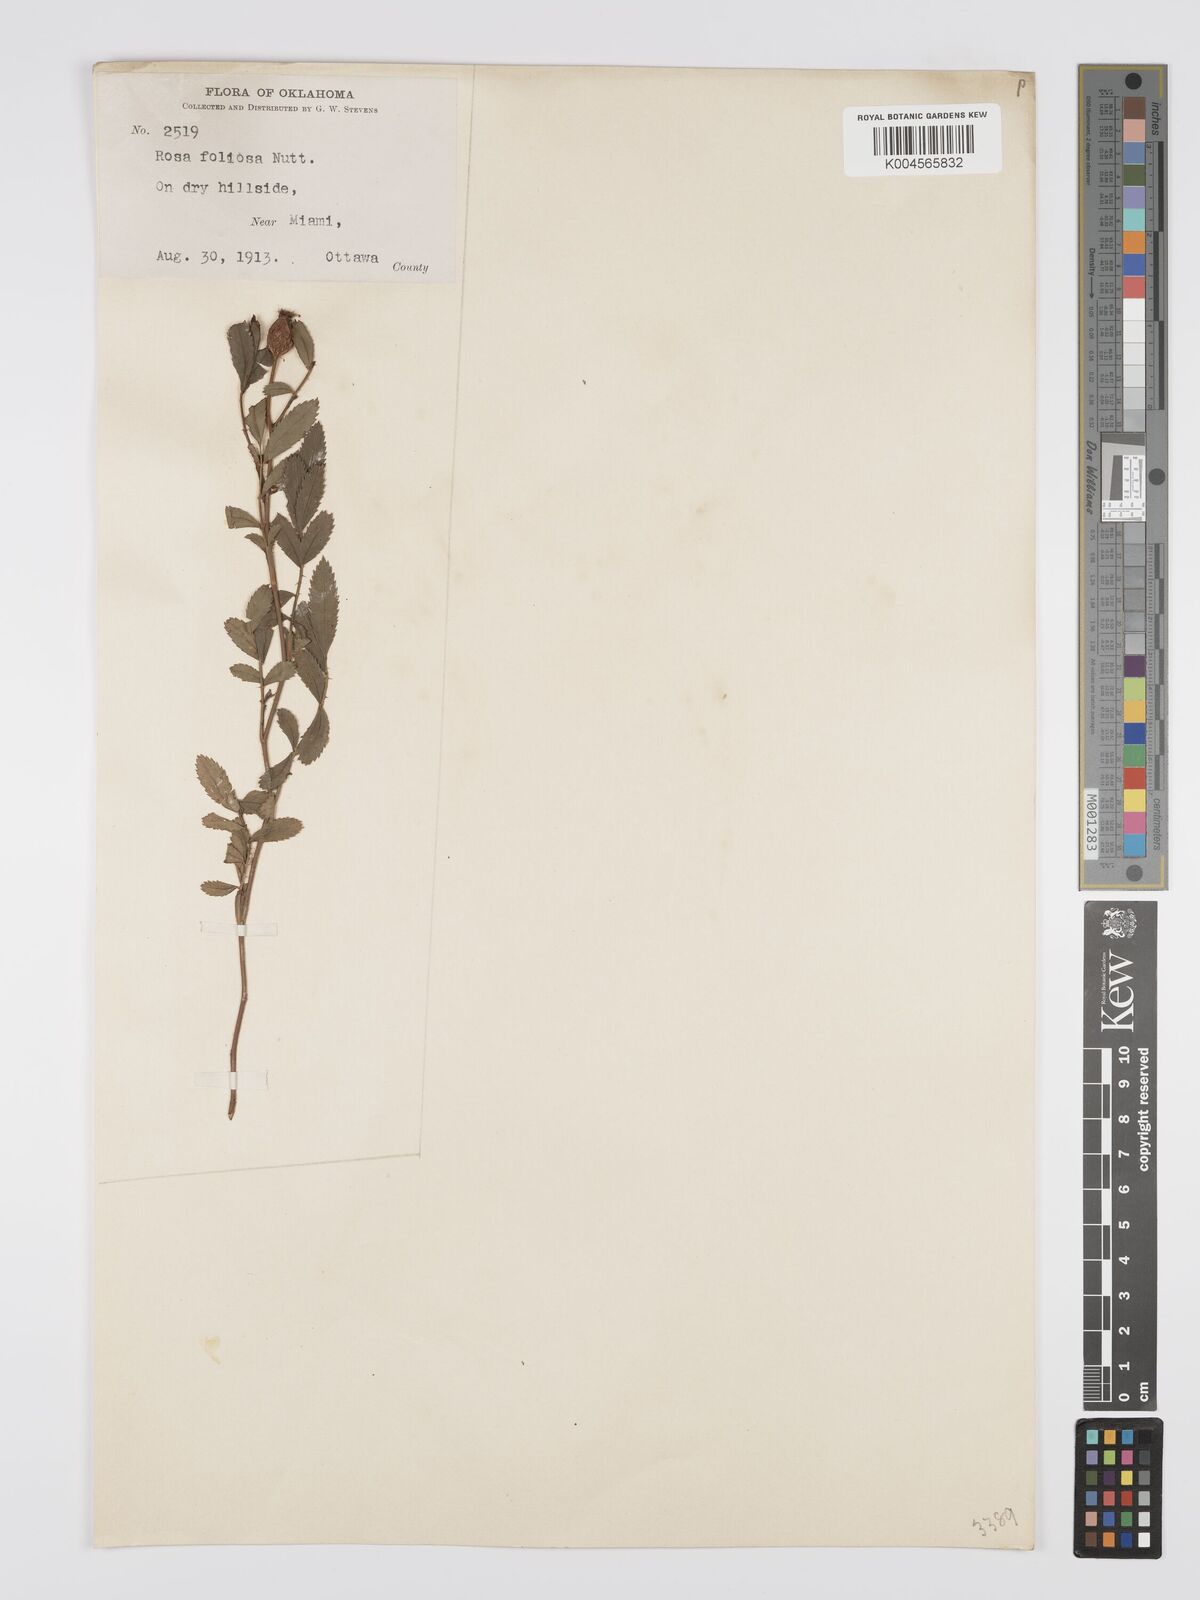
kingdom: Plantae
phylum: Tracheophyta
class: Magnoliopsida
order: Rosales
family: Rosaceae
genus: Rosa
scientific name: Rosa foliolosa
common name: White prairie rose
